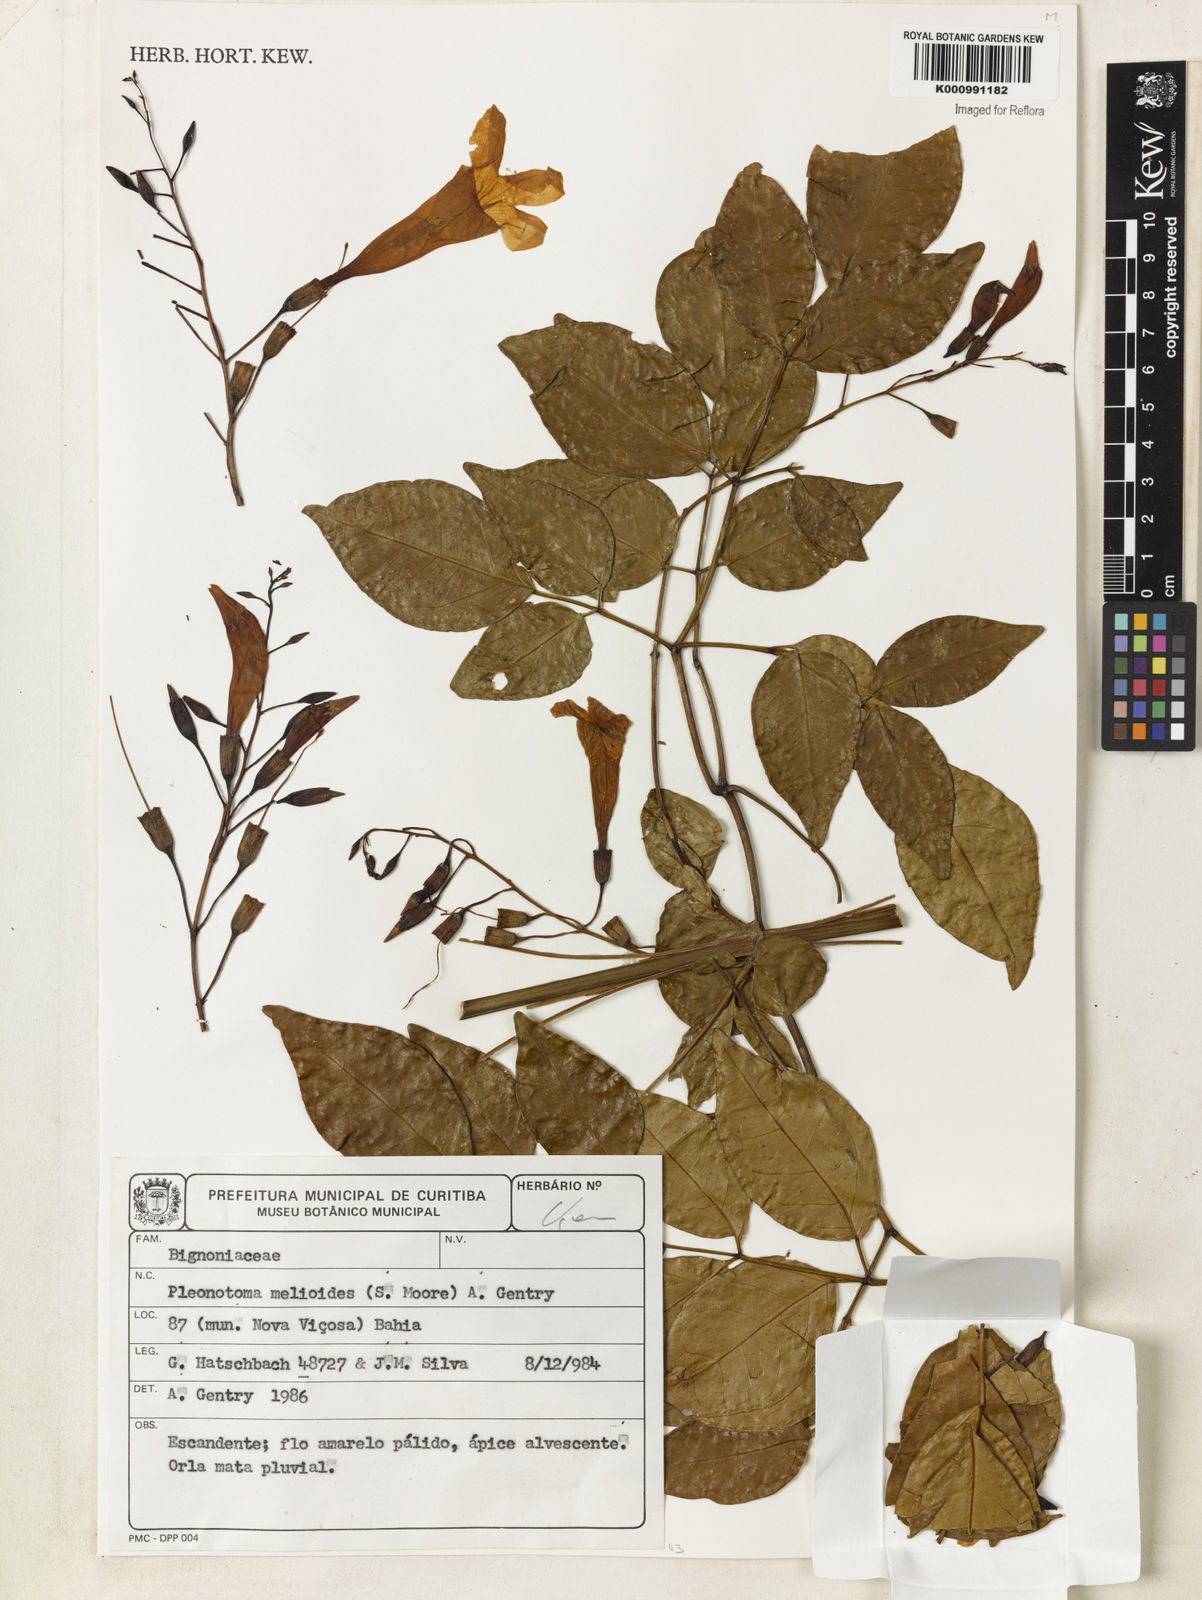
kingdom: Plantae
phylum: Tracheophyta
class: Magnoliopsida
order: Lamiales
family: Bignoniaceae
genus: Pleonotoma
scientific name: Pleonotoma melioides
